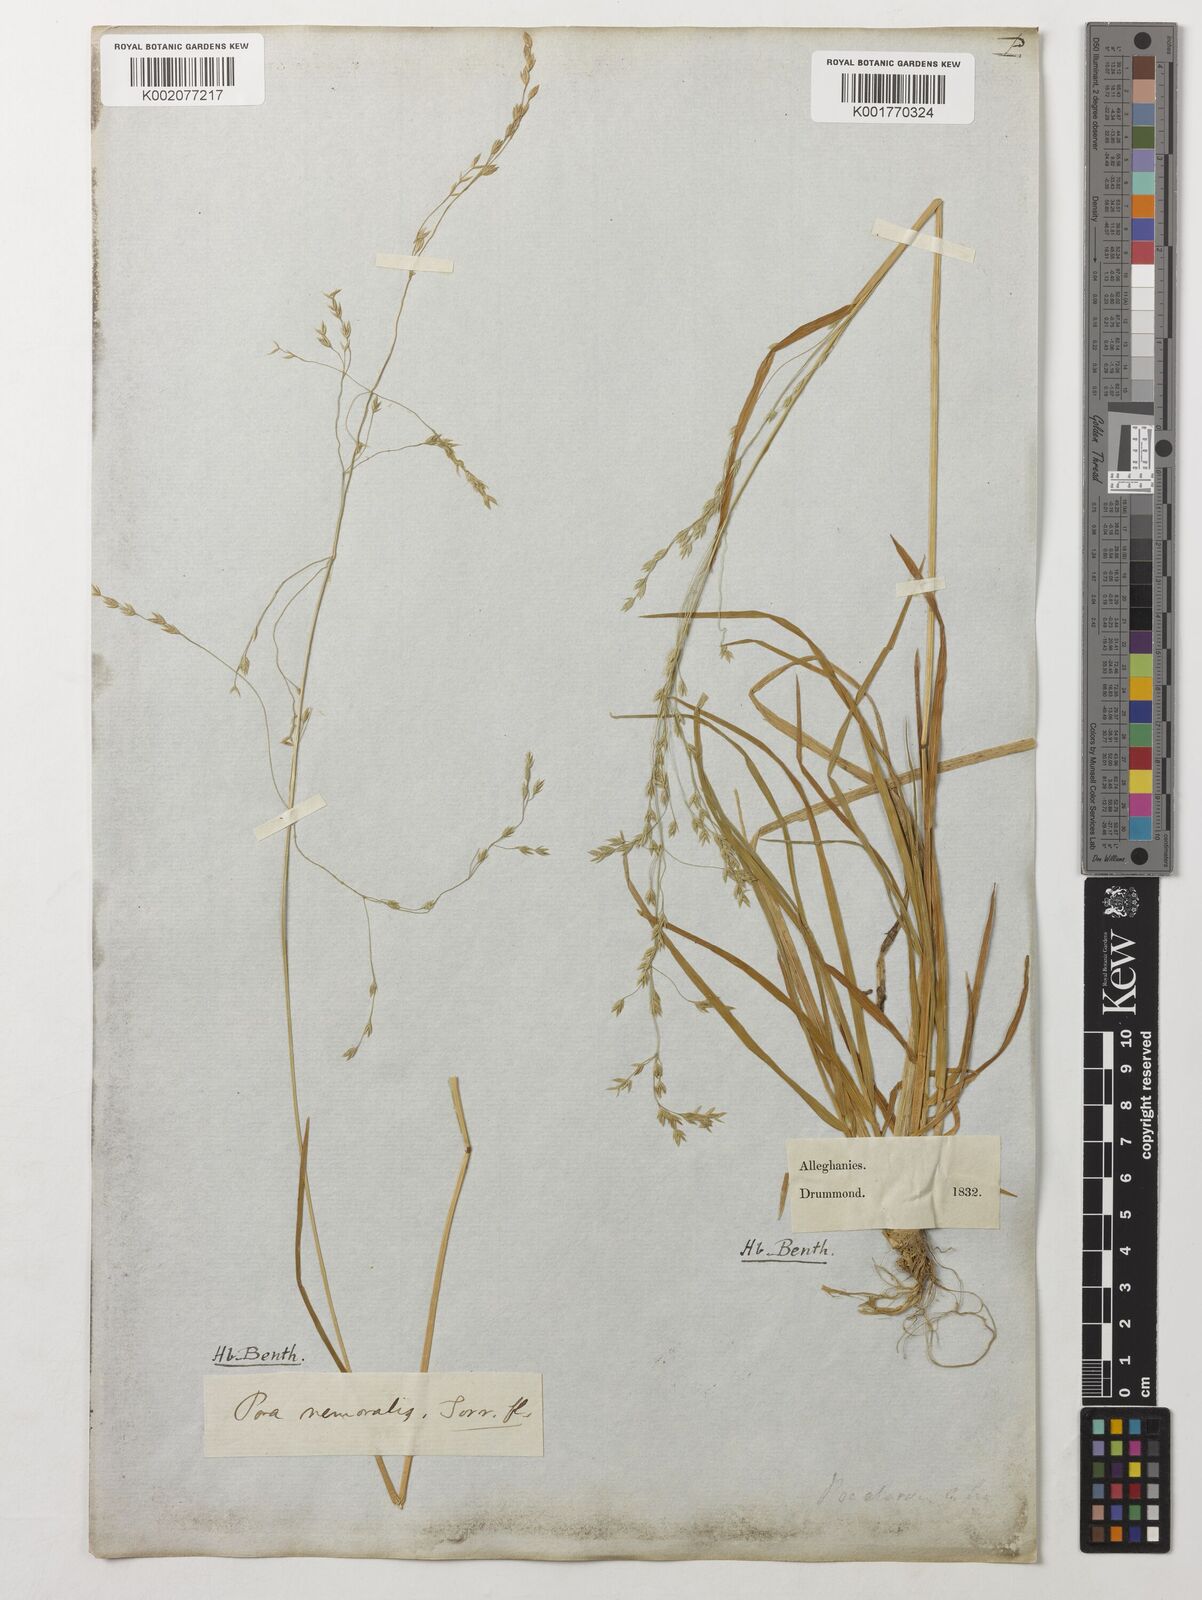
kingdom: Plantae
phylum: Tracheophyta
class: Liliopsida
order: Poales
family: Poaceae
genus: Poa
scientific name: Poa nemoralis
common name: Wood bluegrass
